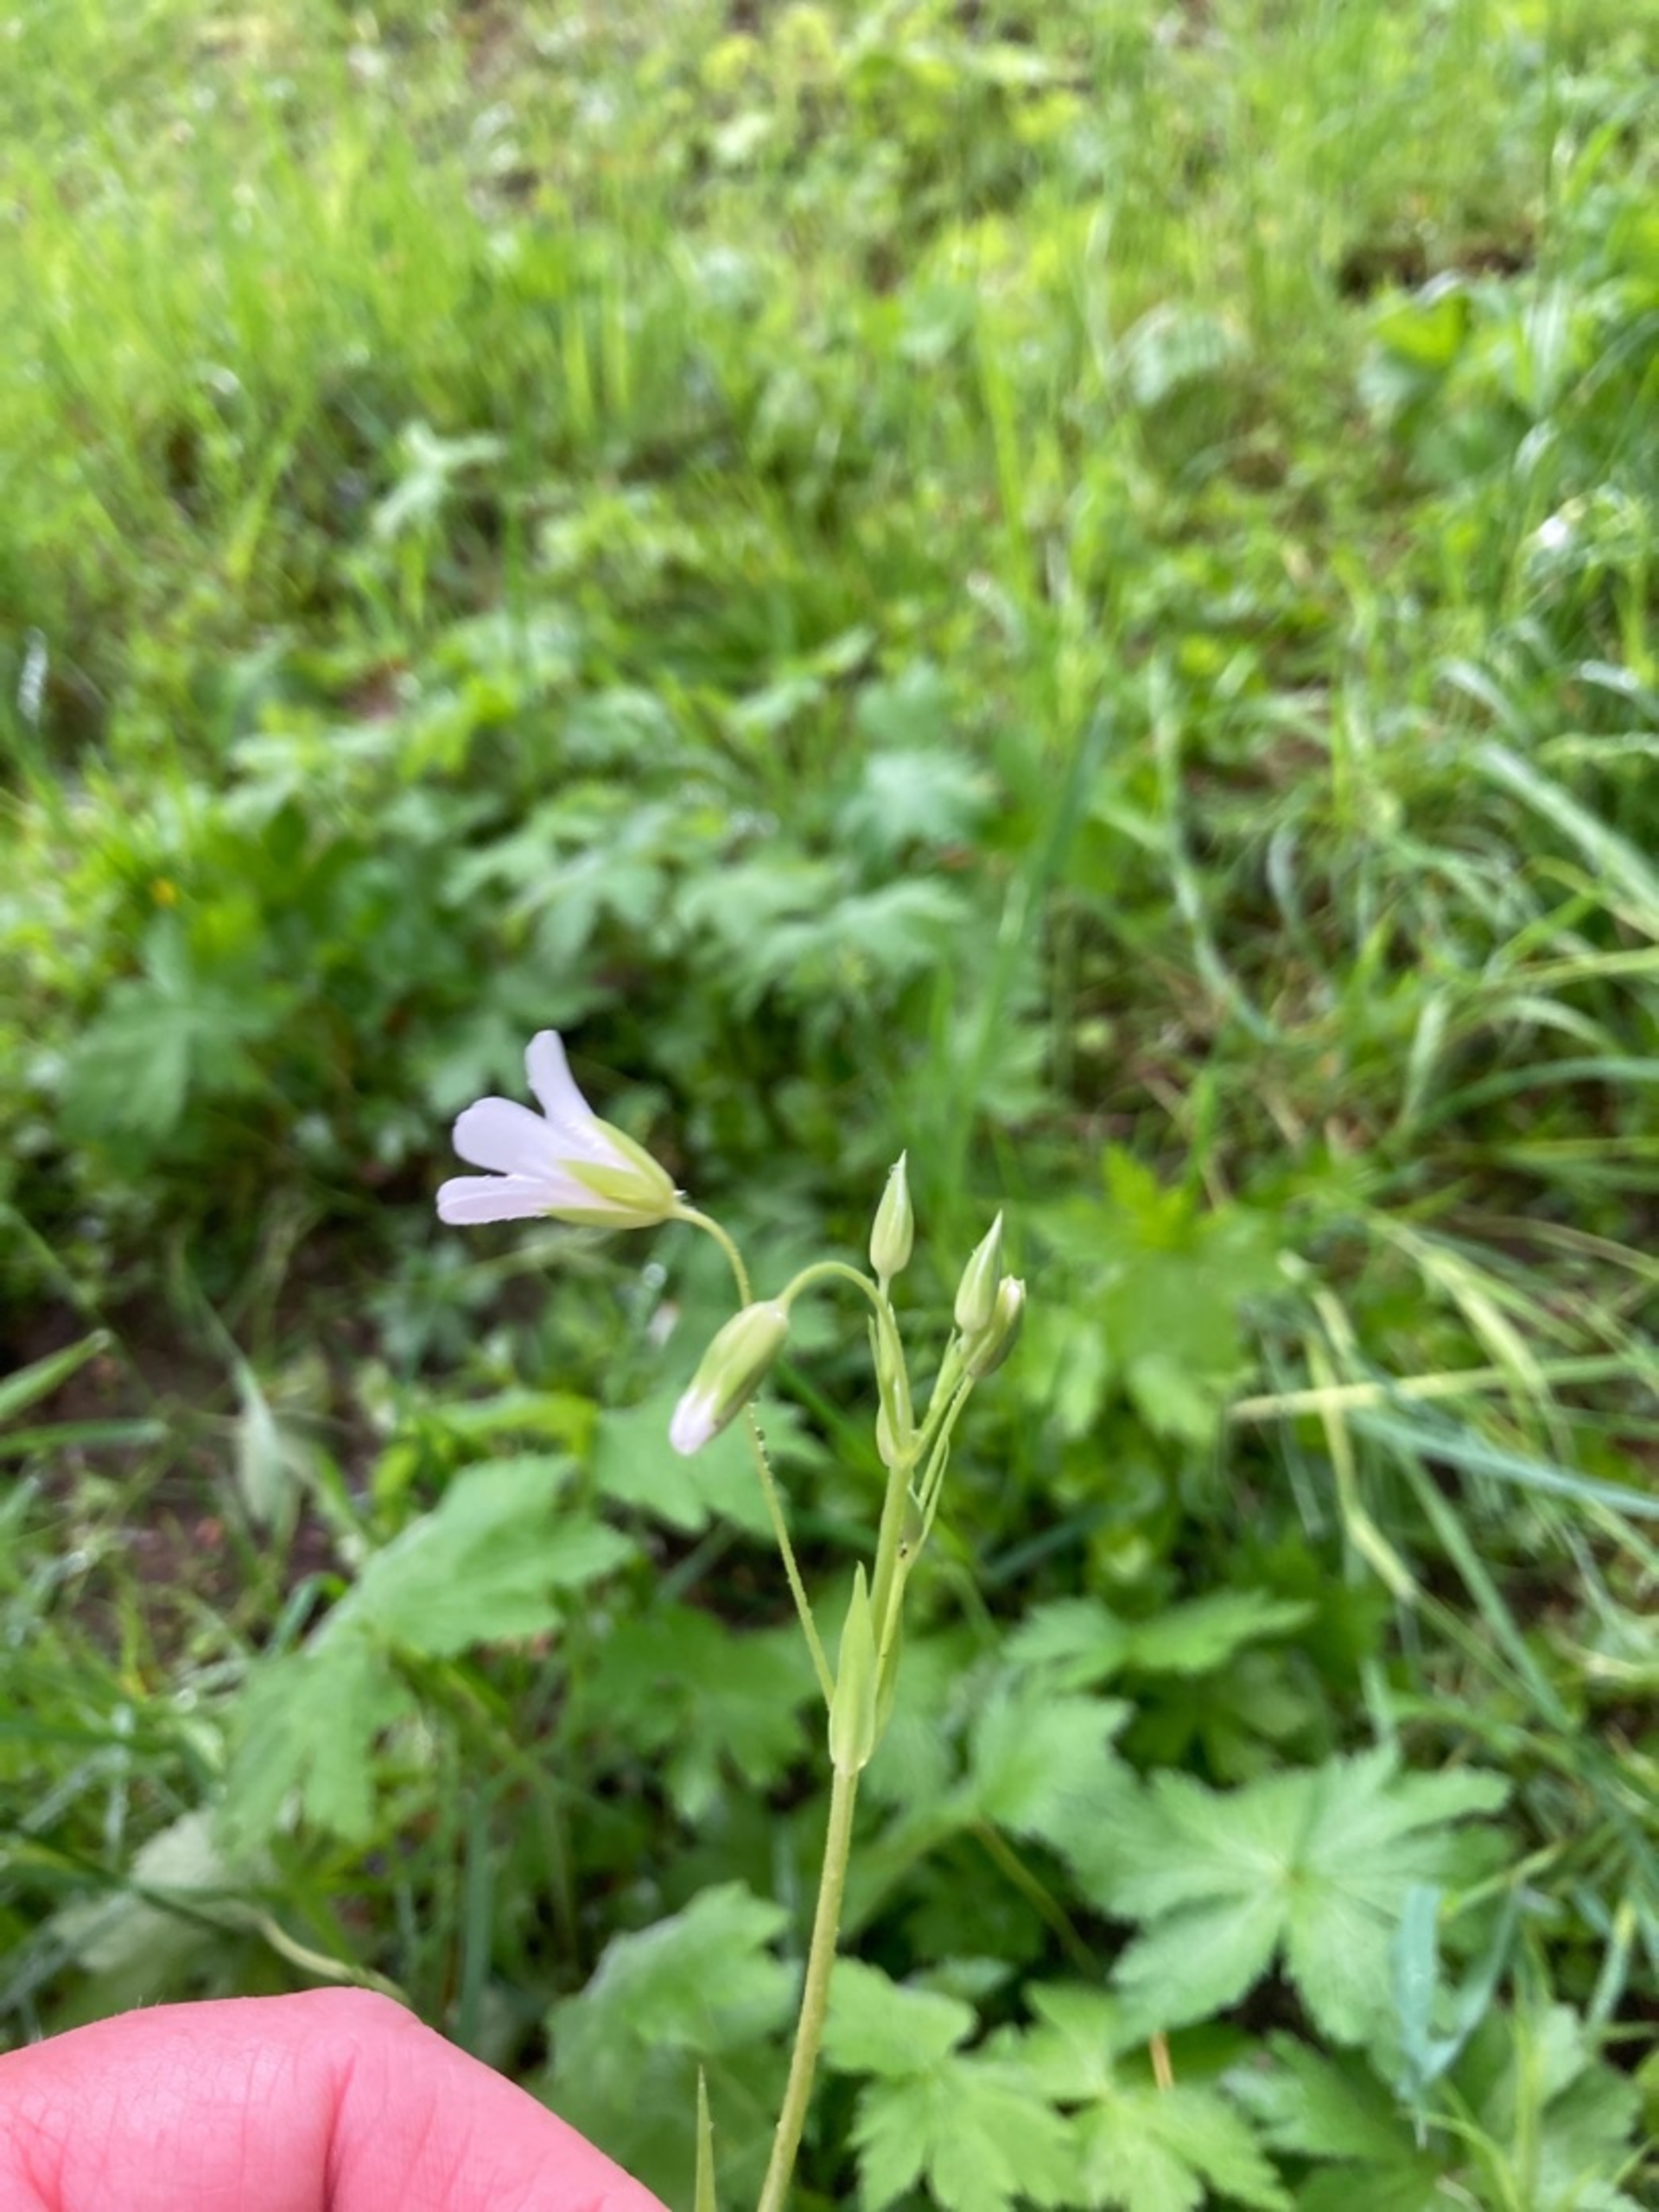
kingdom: Plantae
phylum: Tracheophyta
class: Magnoliopsida
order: Caryophyllales
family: Caryophyllaceae
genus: Rabelera
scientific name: Rabelera holostea
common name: Stor fladstjerne
